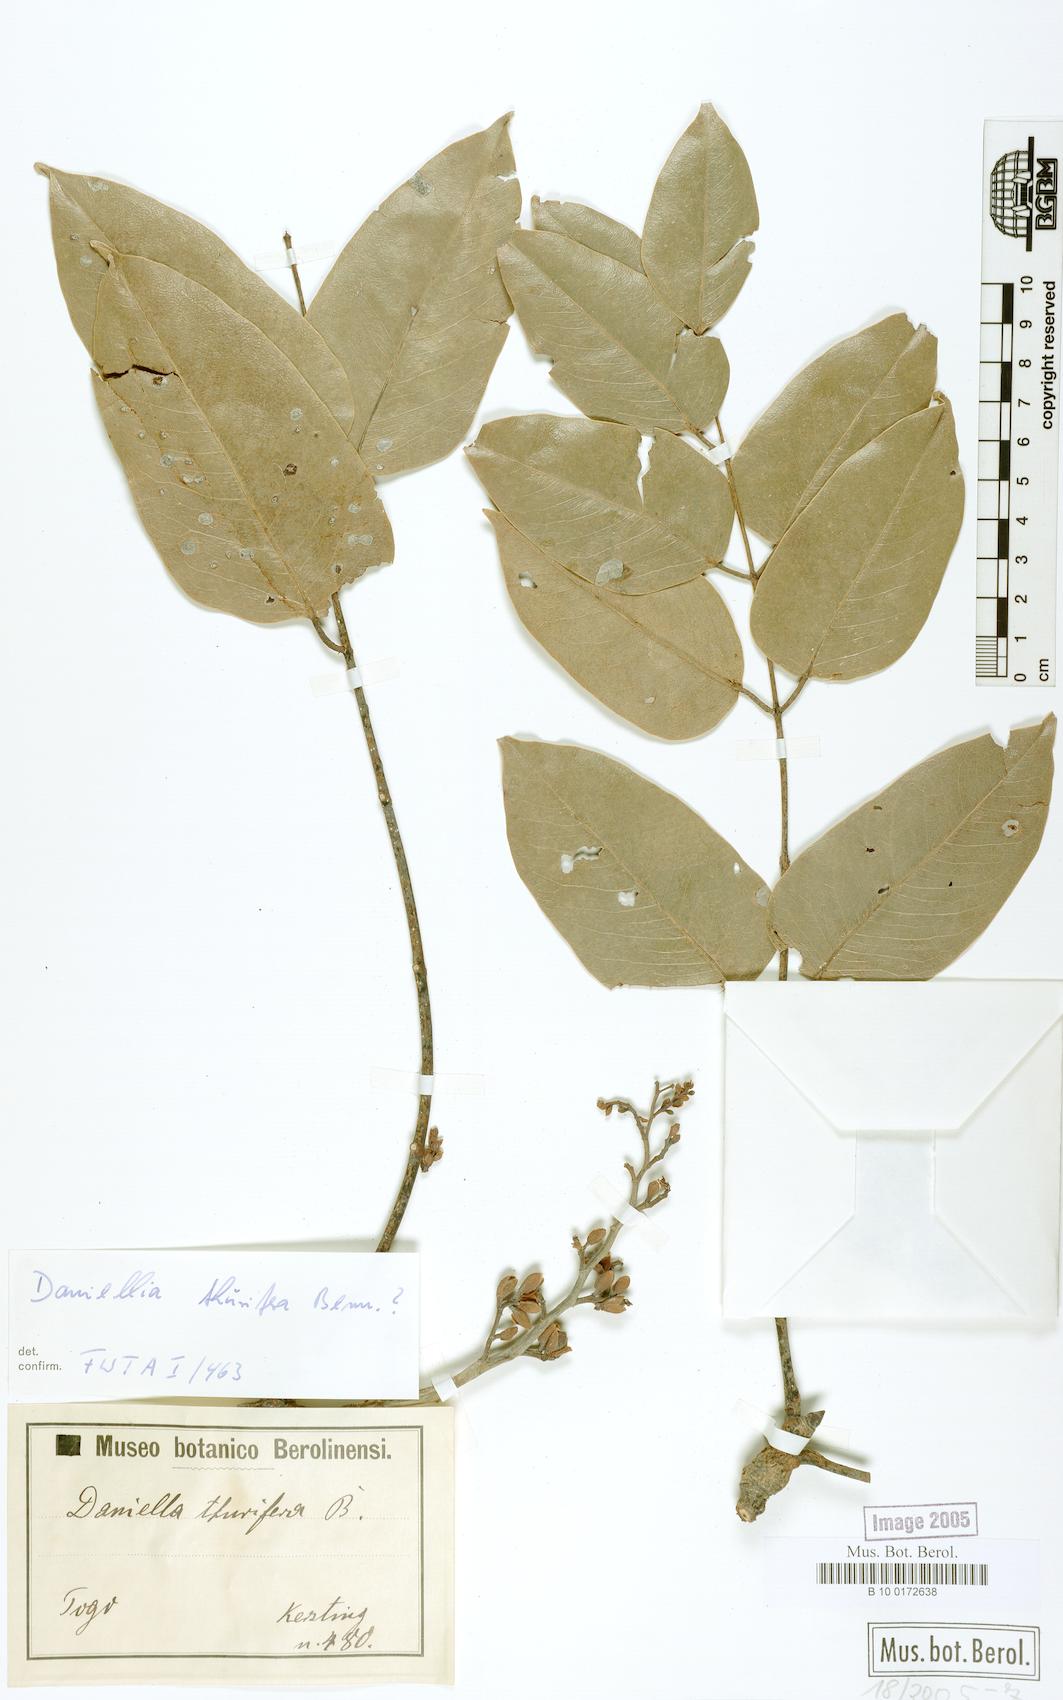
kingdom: Plantae
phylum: Tracheophyta
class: Magnoliopsida
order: Fabales
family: Fabaceae
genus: Daniellia
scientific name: Daniellia oliveri
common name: African copaiba balsamtree
